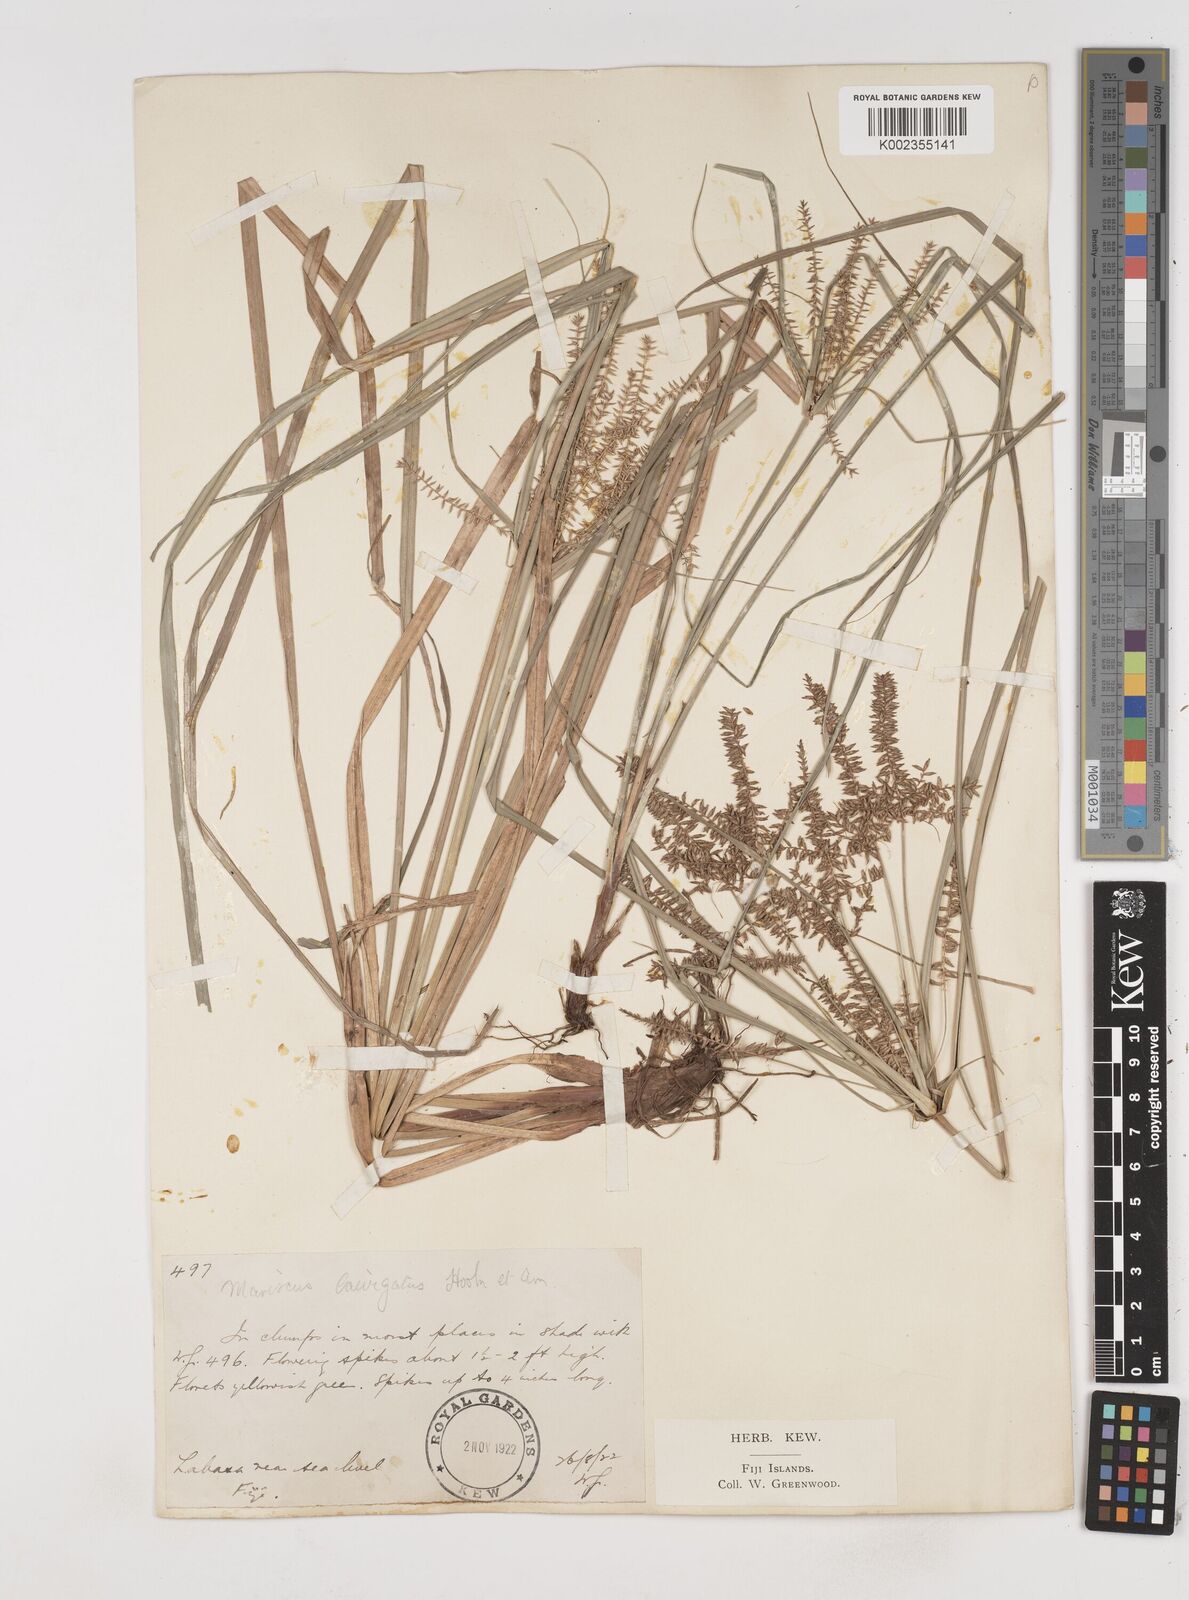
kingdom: Plantae
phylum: Tracheophyta
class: Liliopsida
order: Poales
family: Cyperaceae
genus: Cyperus
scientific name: Cyperus seemannianus
